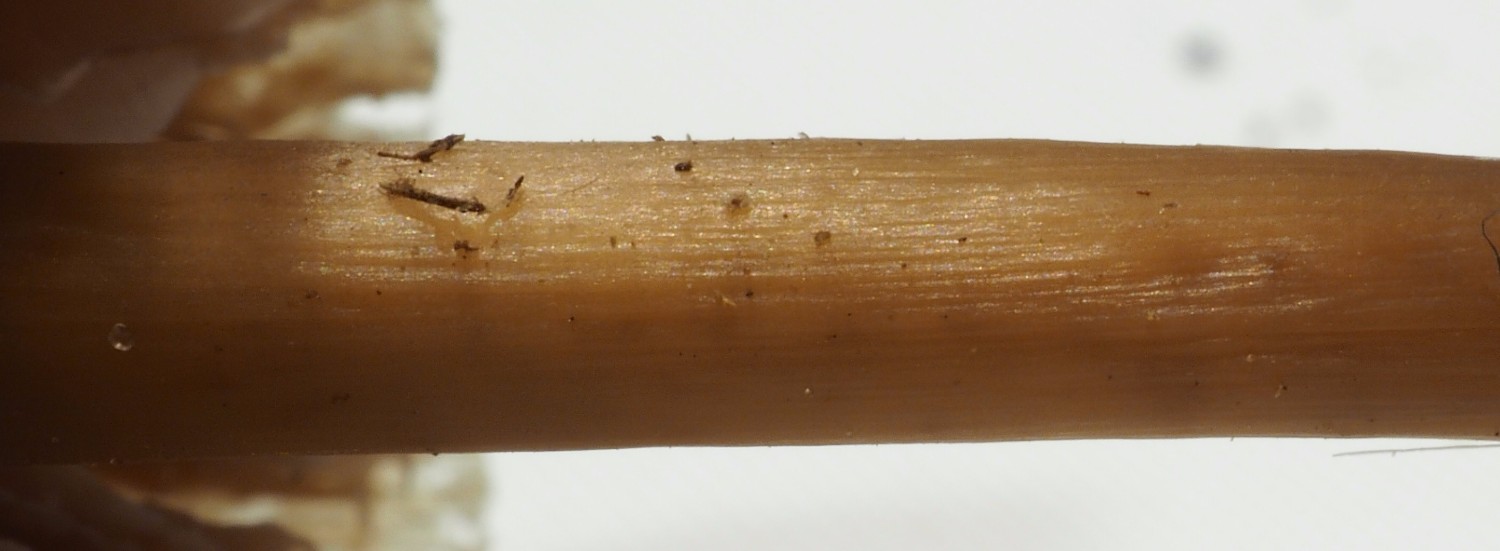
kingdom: Fungi
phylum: Basidiomycota
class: Agaricomycetes
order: Agaricales
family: Marasmiaceae
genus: Marasmius
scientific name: Marasmius
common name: bruskhat
